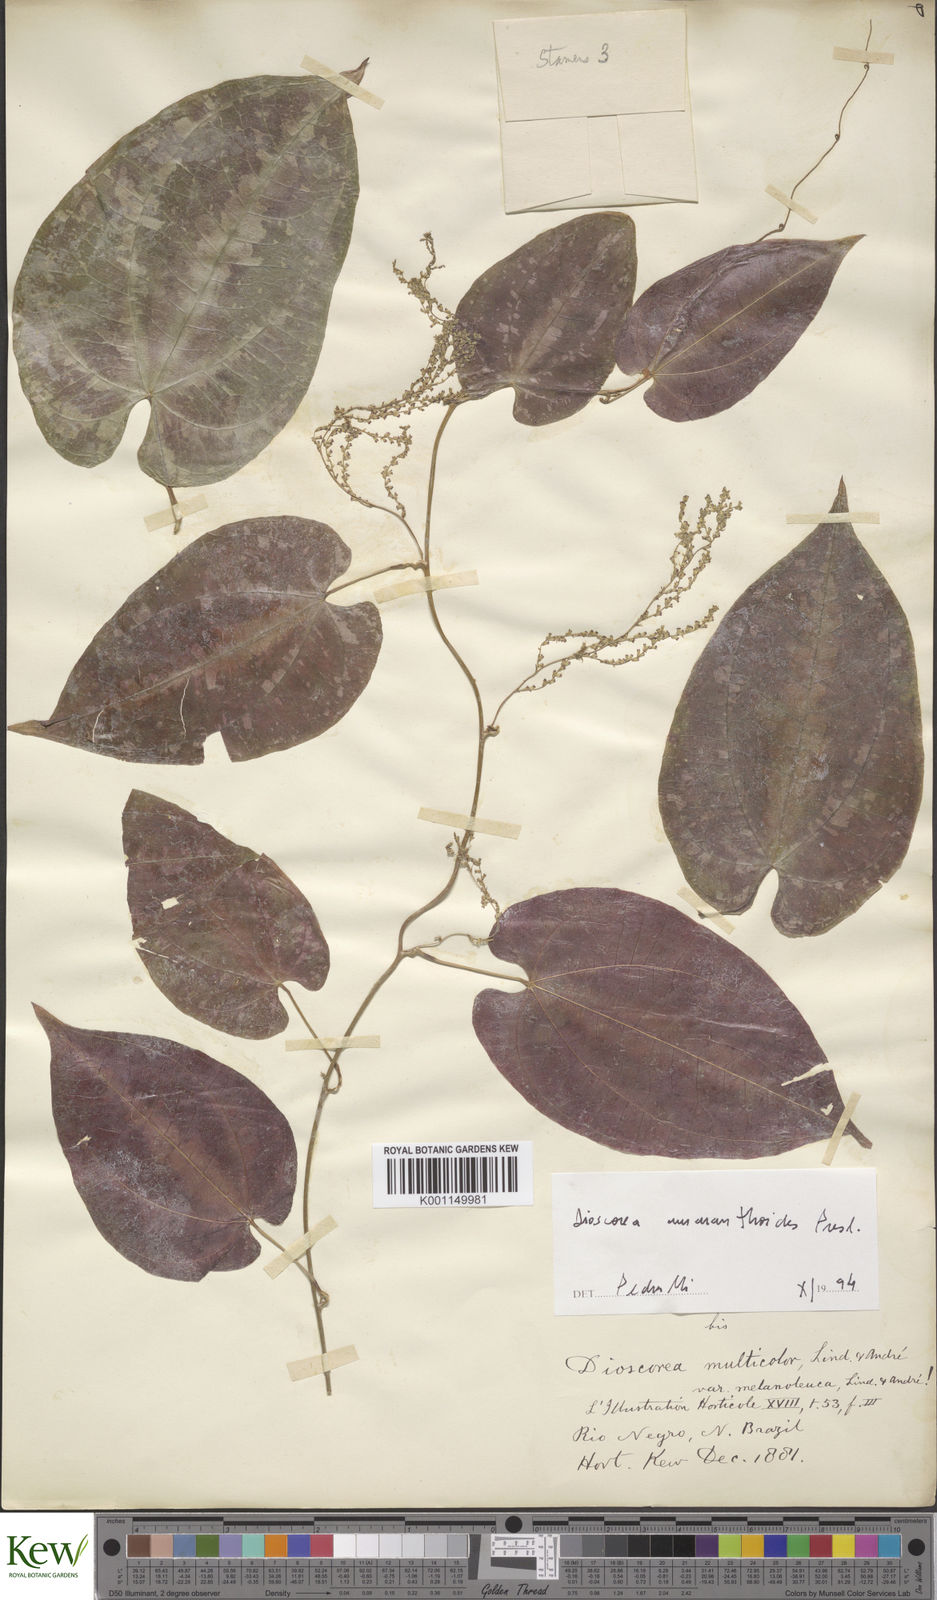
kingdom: Plantae
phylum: Tracheophyta
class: Liliopsida
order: Dioscoreales
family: Dioscoreaceae
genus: Dioscorea
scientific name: Dioscorea amaranthoides
